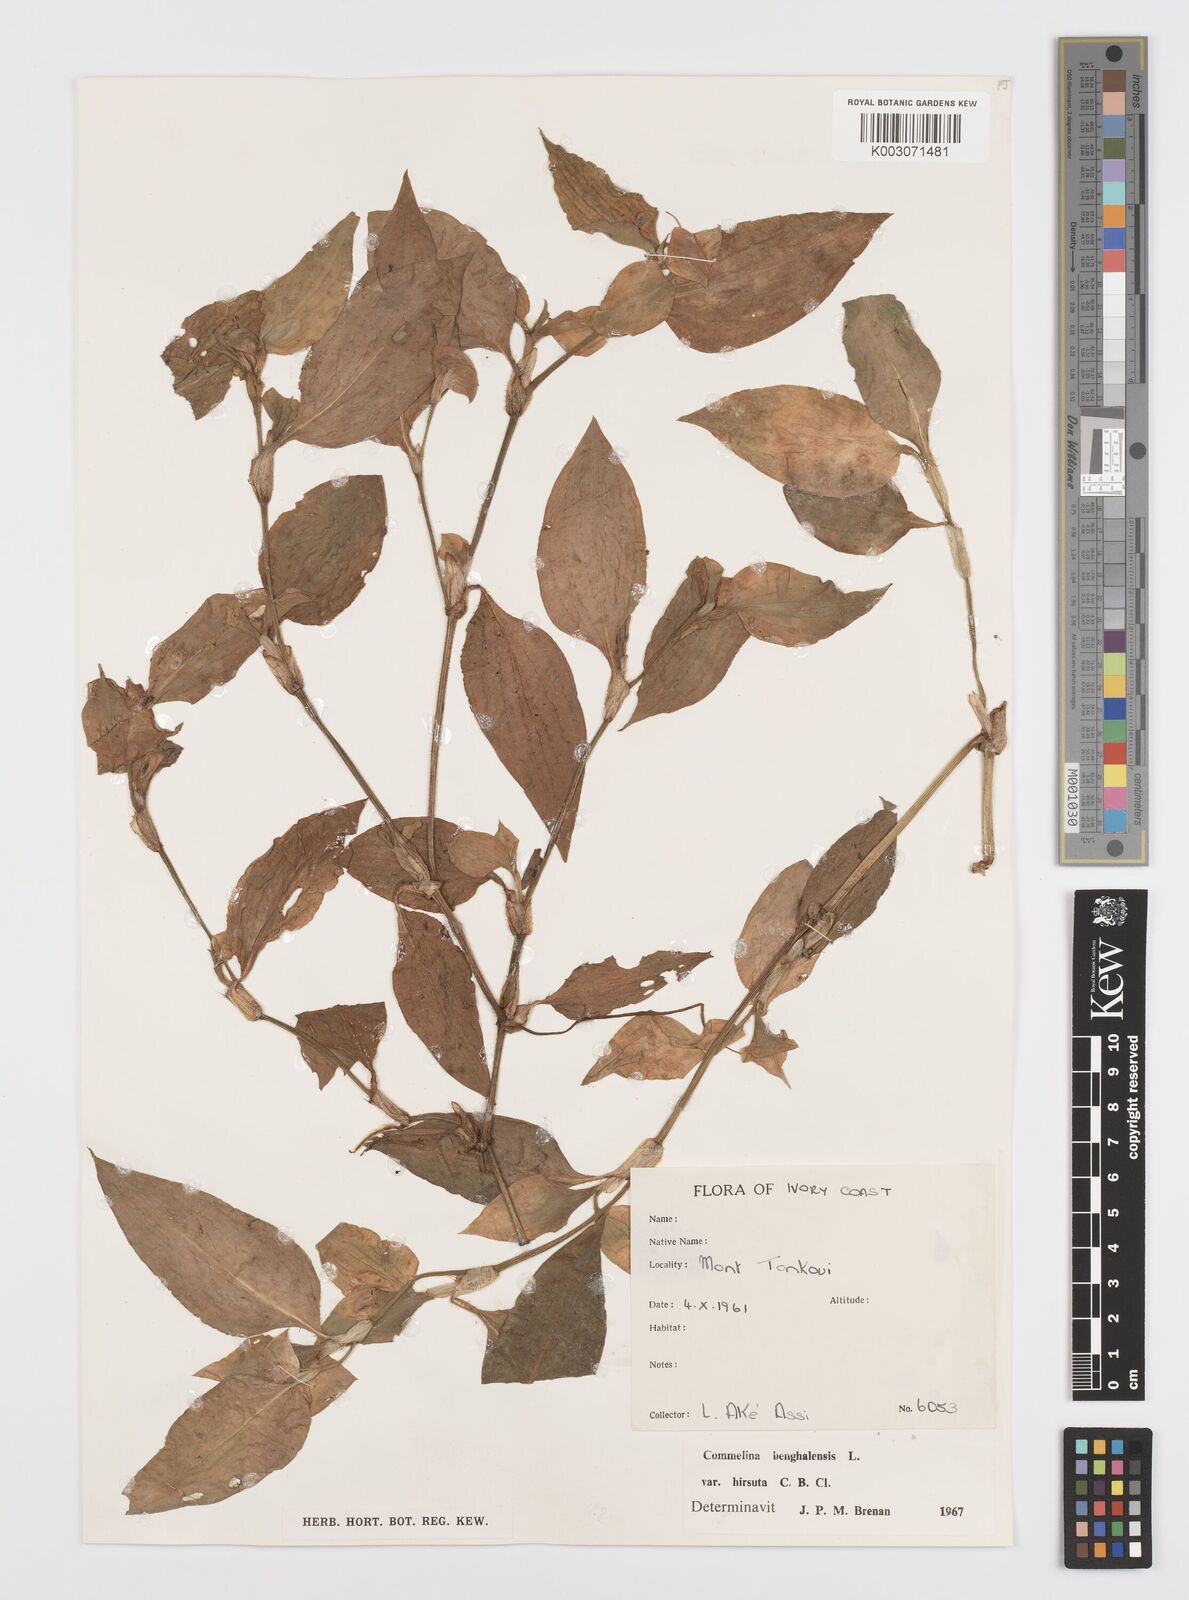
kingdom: Plantae
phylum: Tracheophyta
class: Liliopsida
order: Commelinales
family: Commelinaceae
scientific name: Commelinaceae
